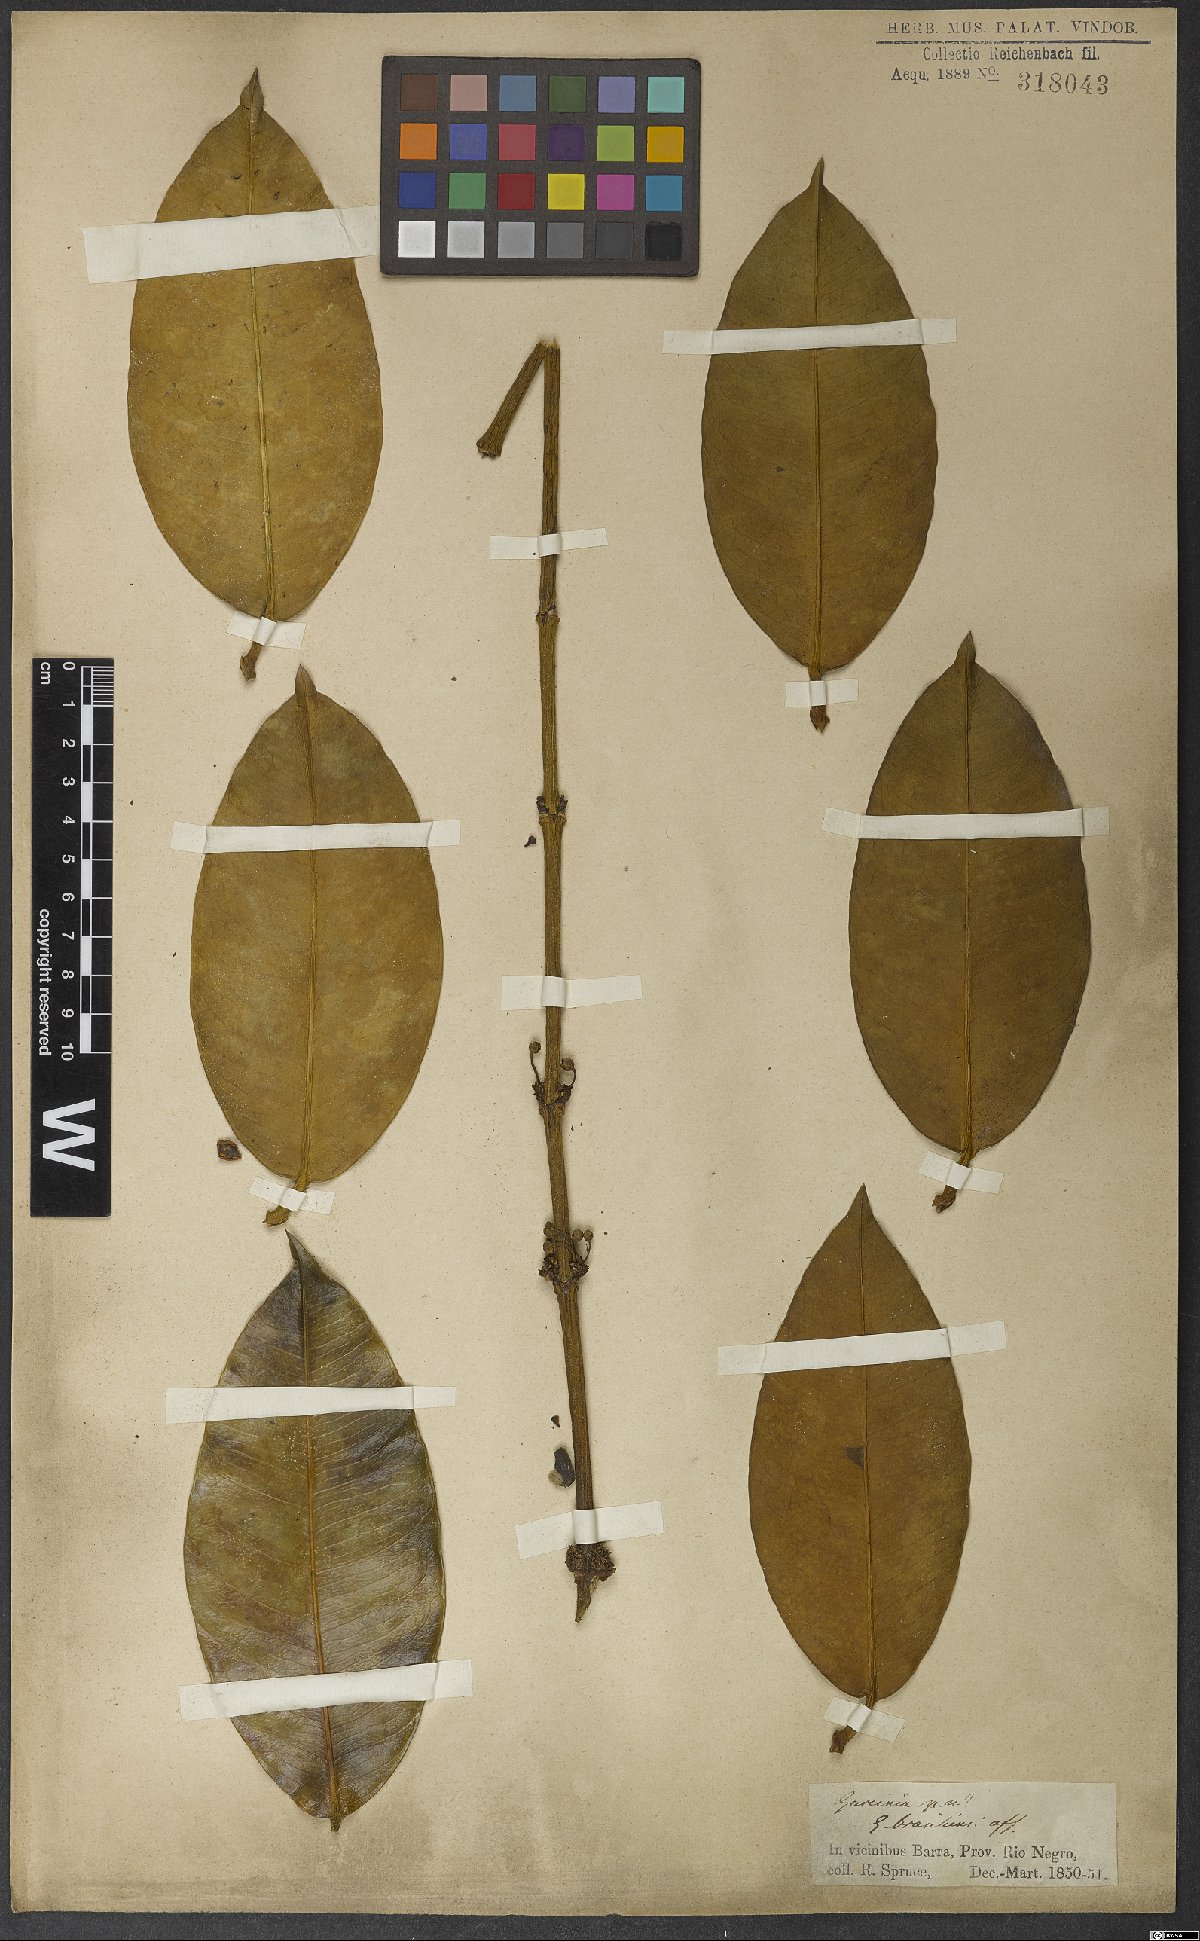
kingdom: Plantae
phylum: Tracheophyta
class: Magnoliopsida
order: Malpighiales
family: Clusiaceae
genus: Garcinia
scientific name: Garcinia madruno
